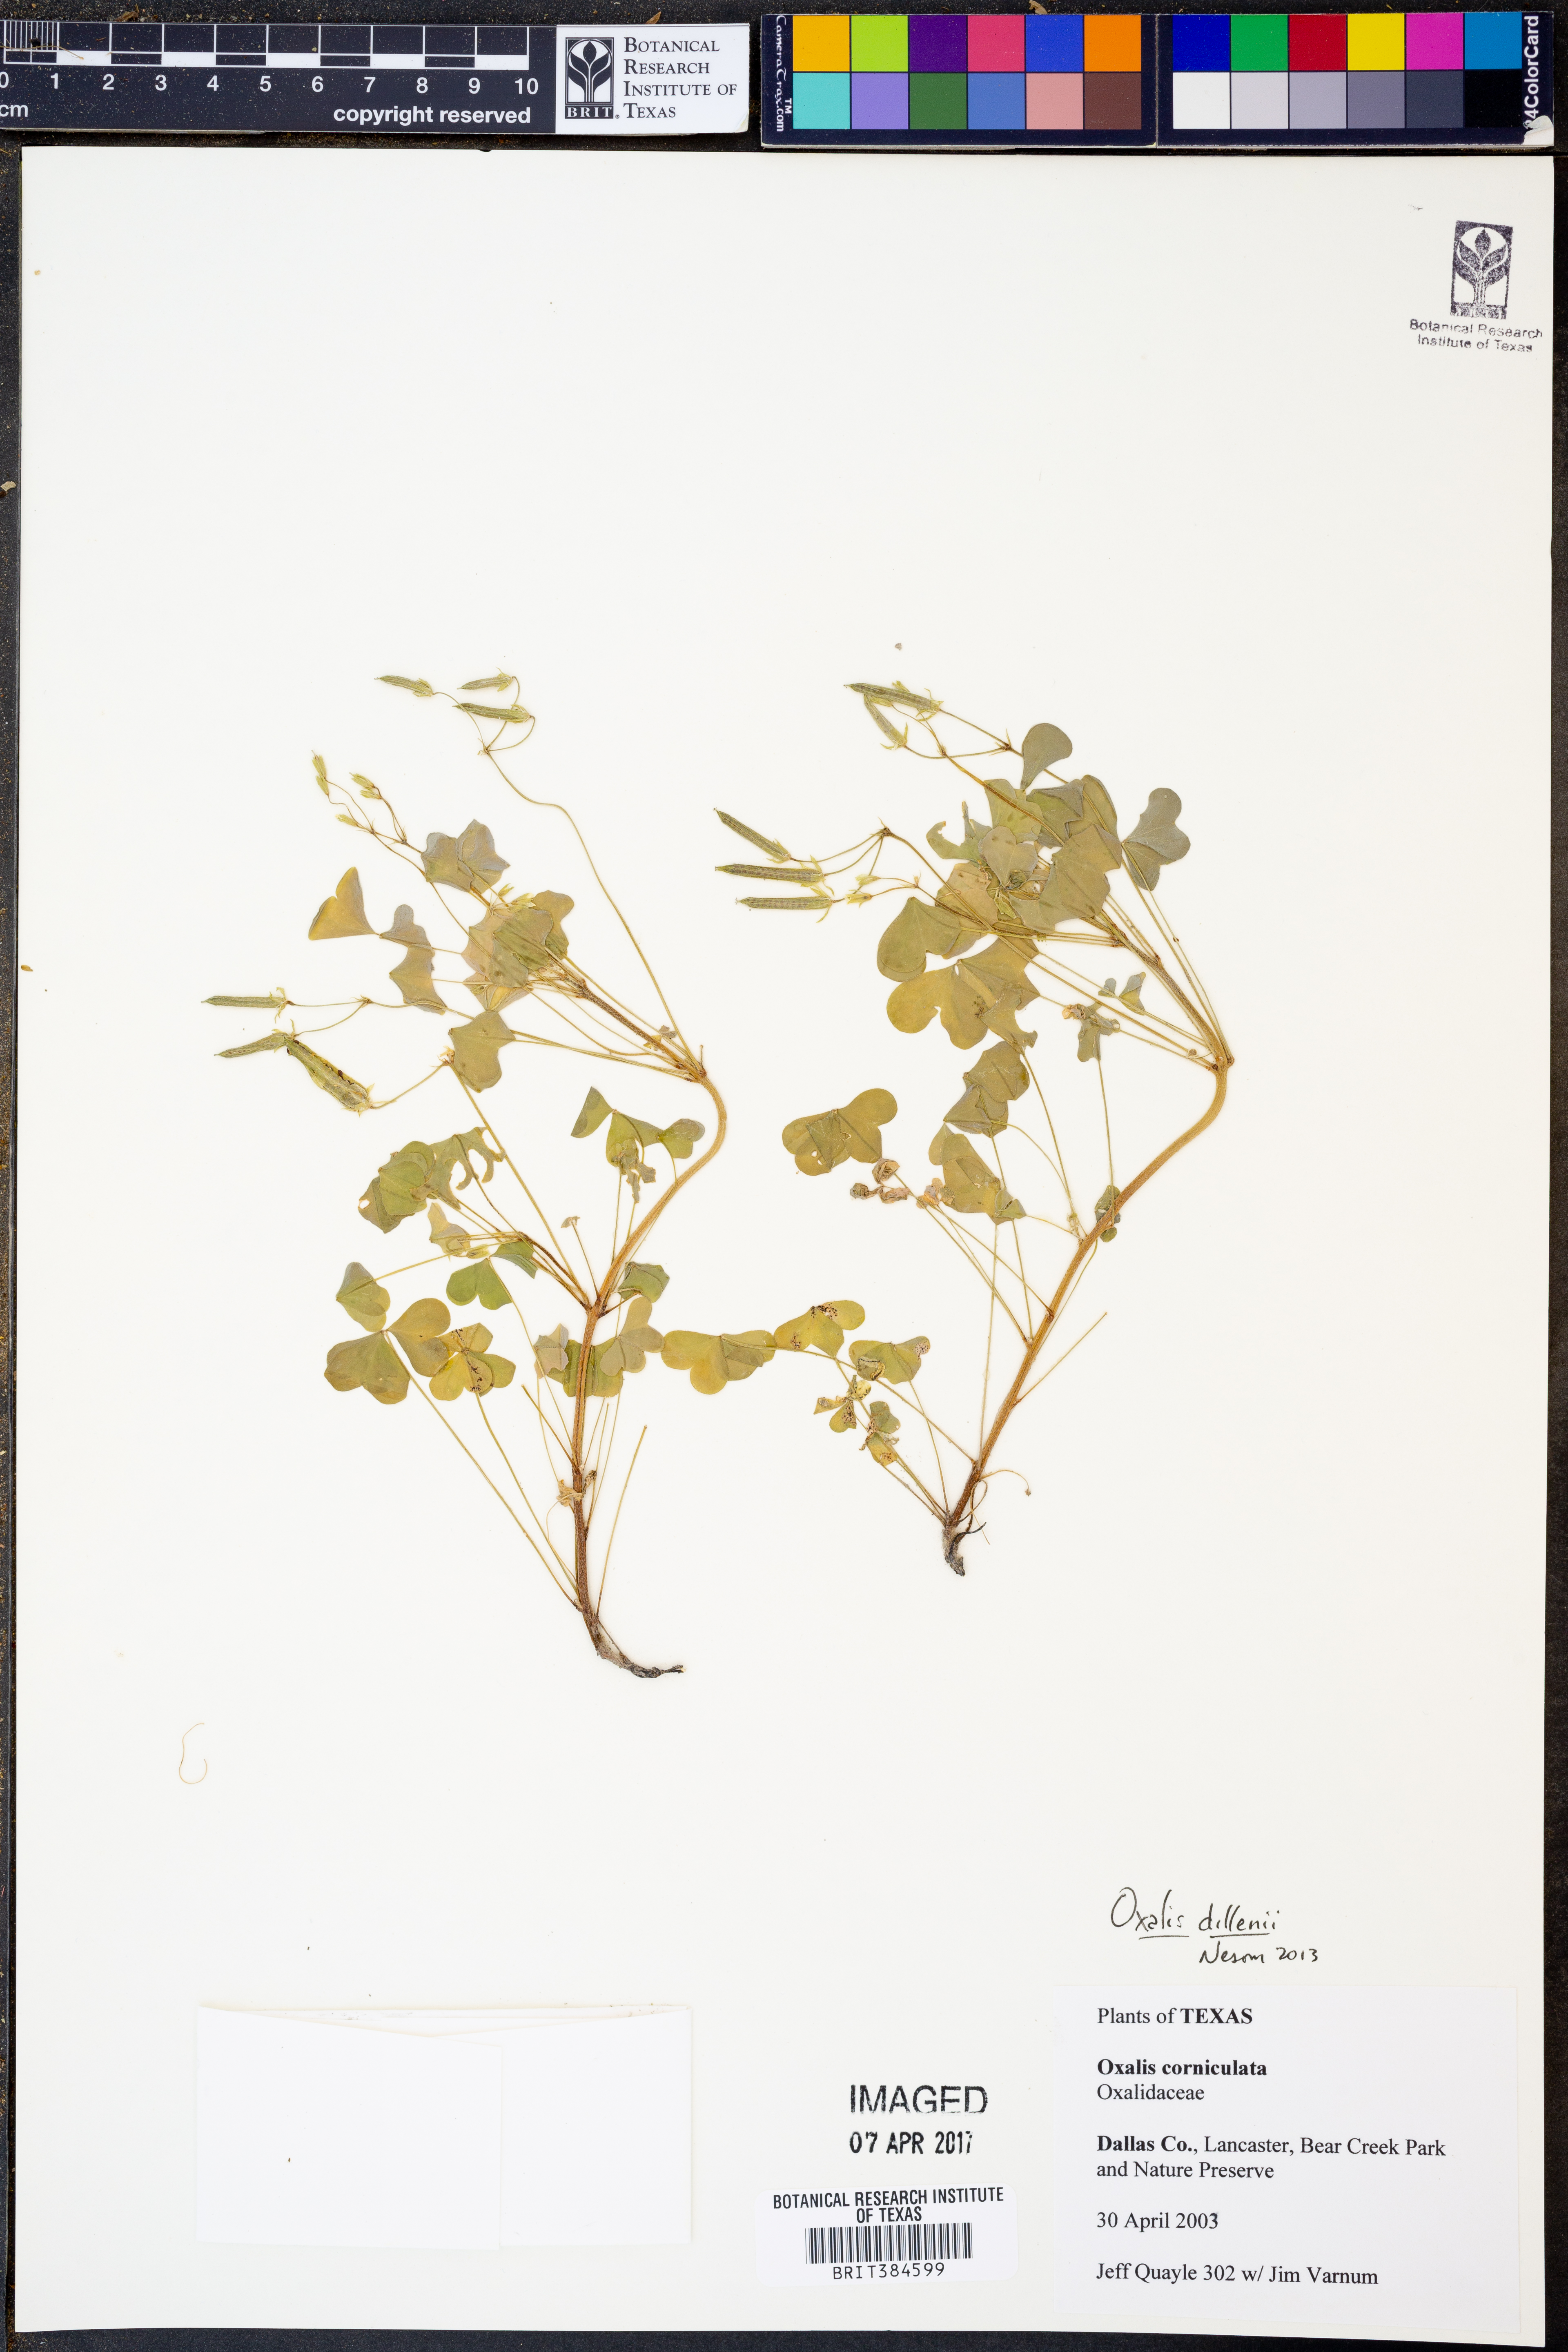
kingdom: Plantae
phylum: Tracheophyta
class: Magnoliopsida
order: Oxalidales
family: Oxalidaceae
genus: Oxalis
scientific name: Oxalis dillenii
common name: Sussex yellow-sorrel
